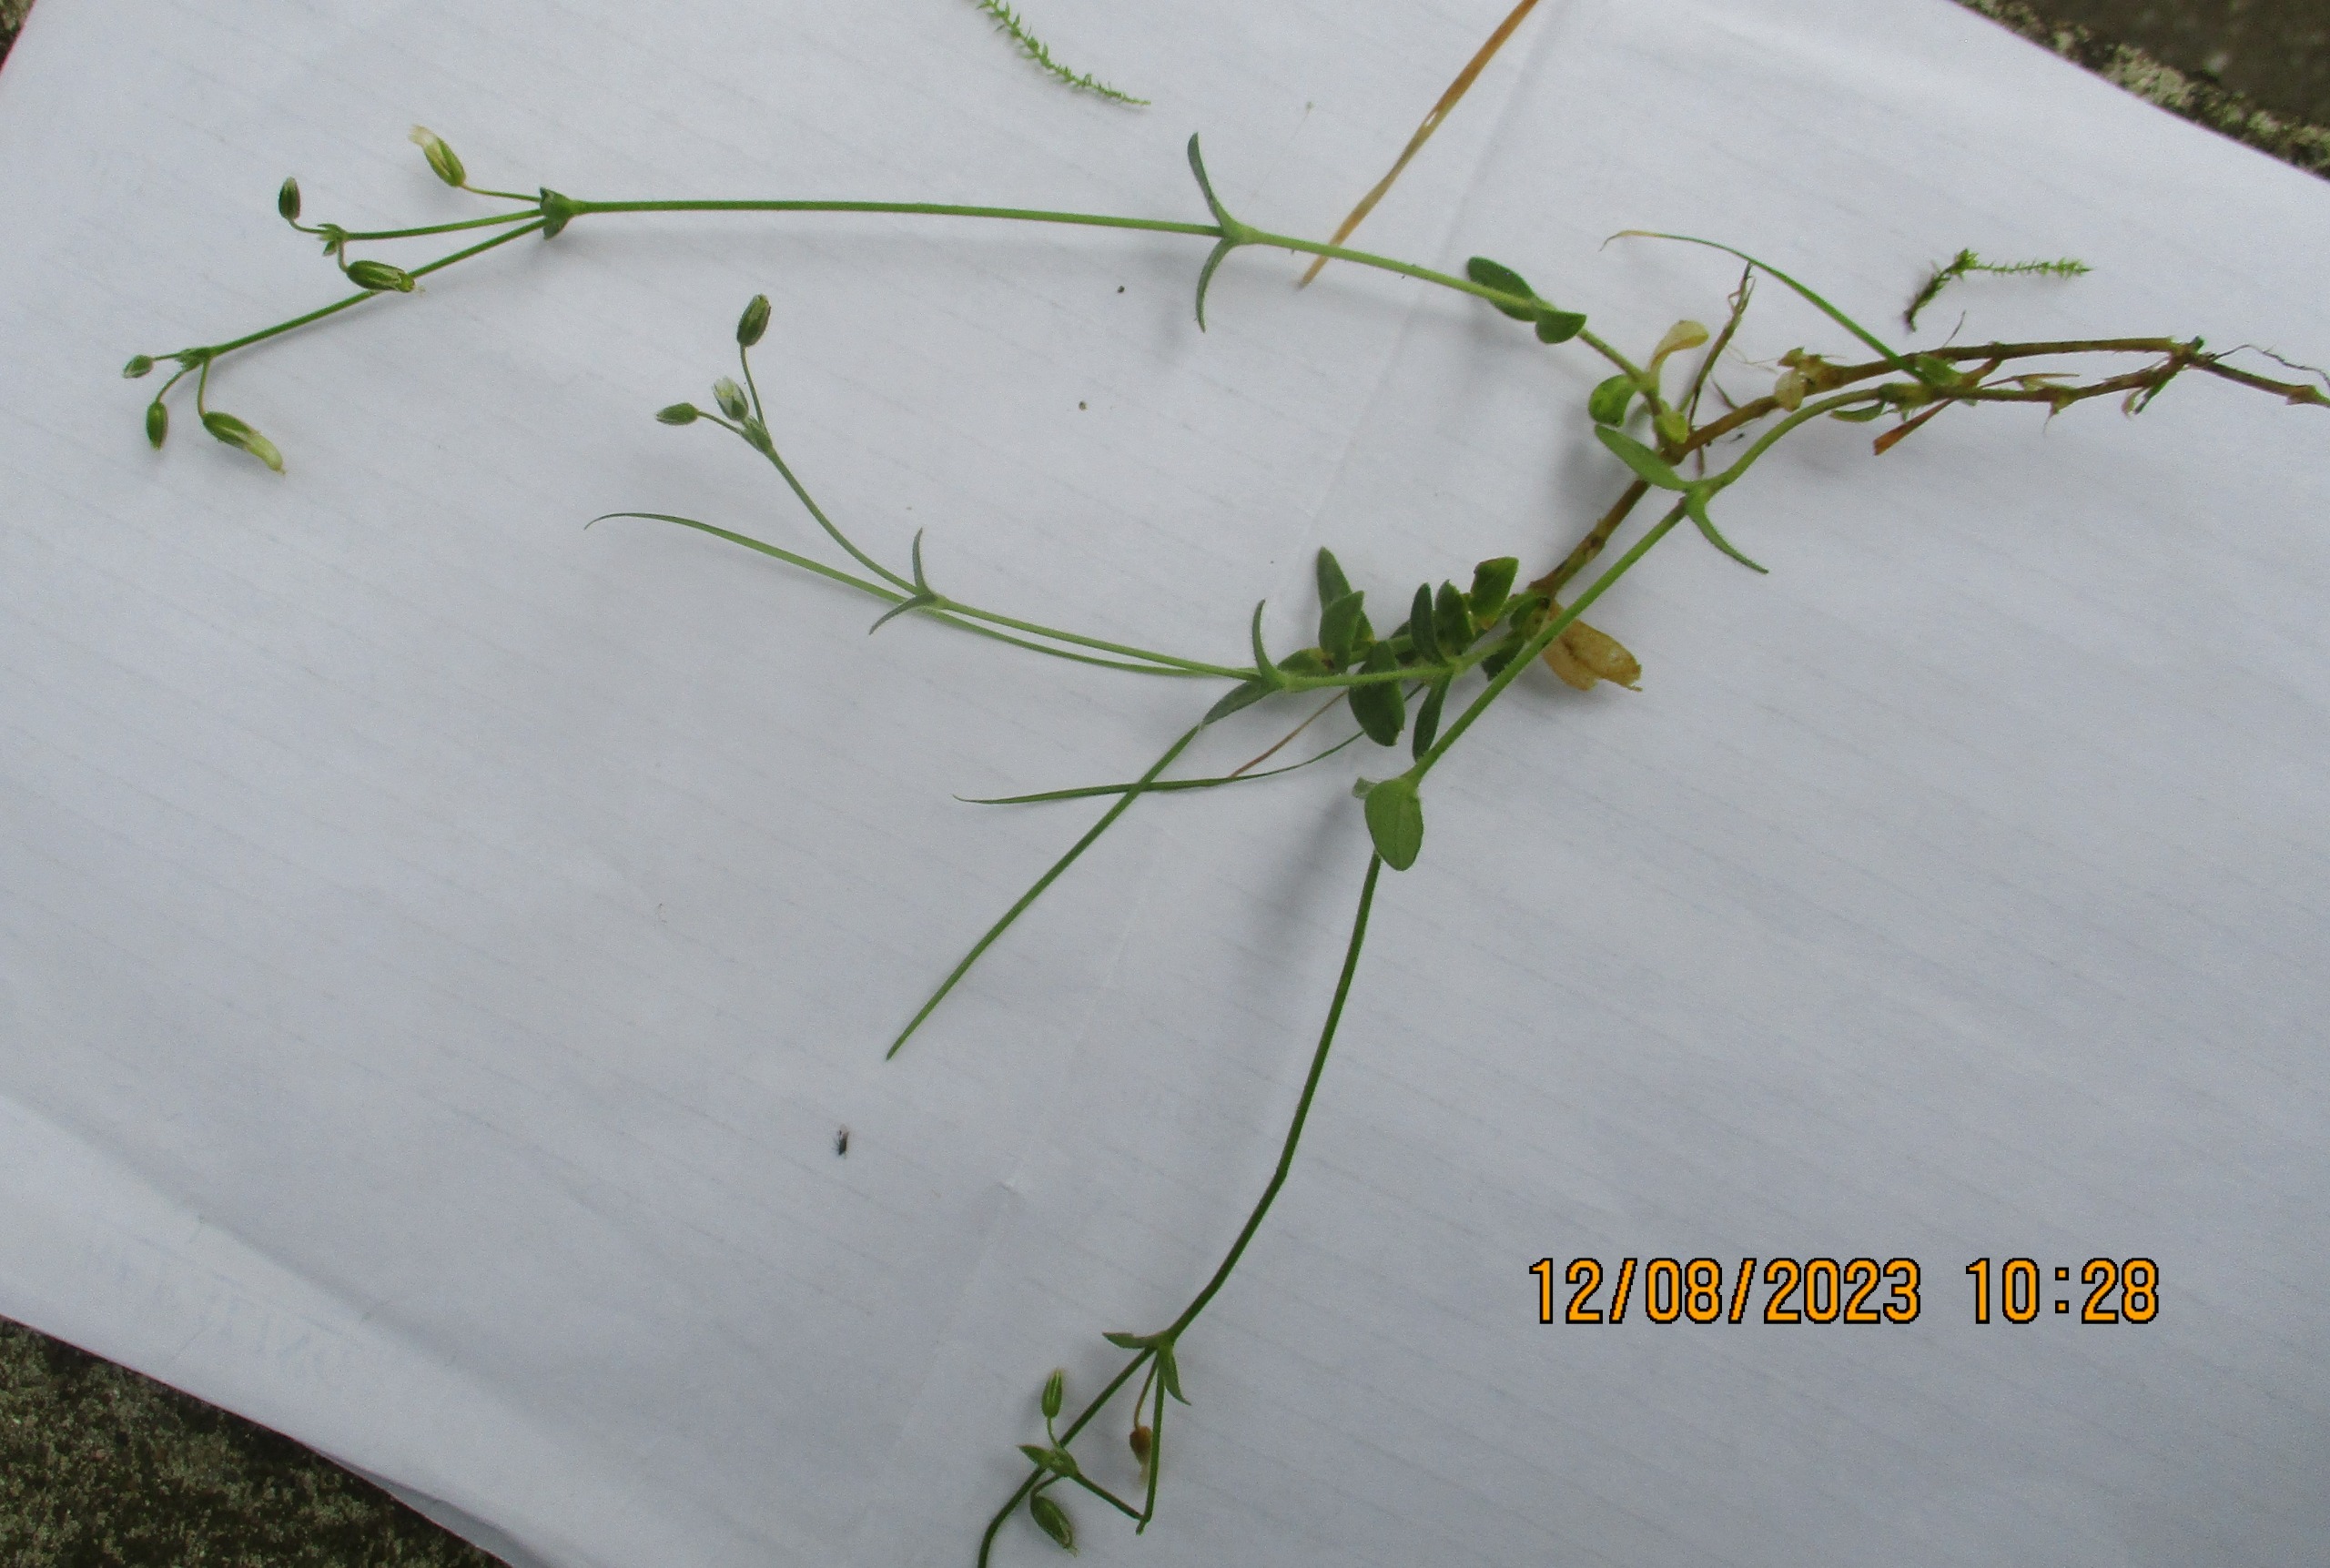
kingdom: Plantae
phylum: Tracheophyta
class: Magnoliopsida
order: Caryophyllales
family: Caryophyllaceae
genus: Cerastium
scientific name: Cerastium fontanum
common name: Almindelig hønsetarm
